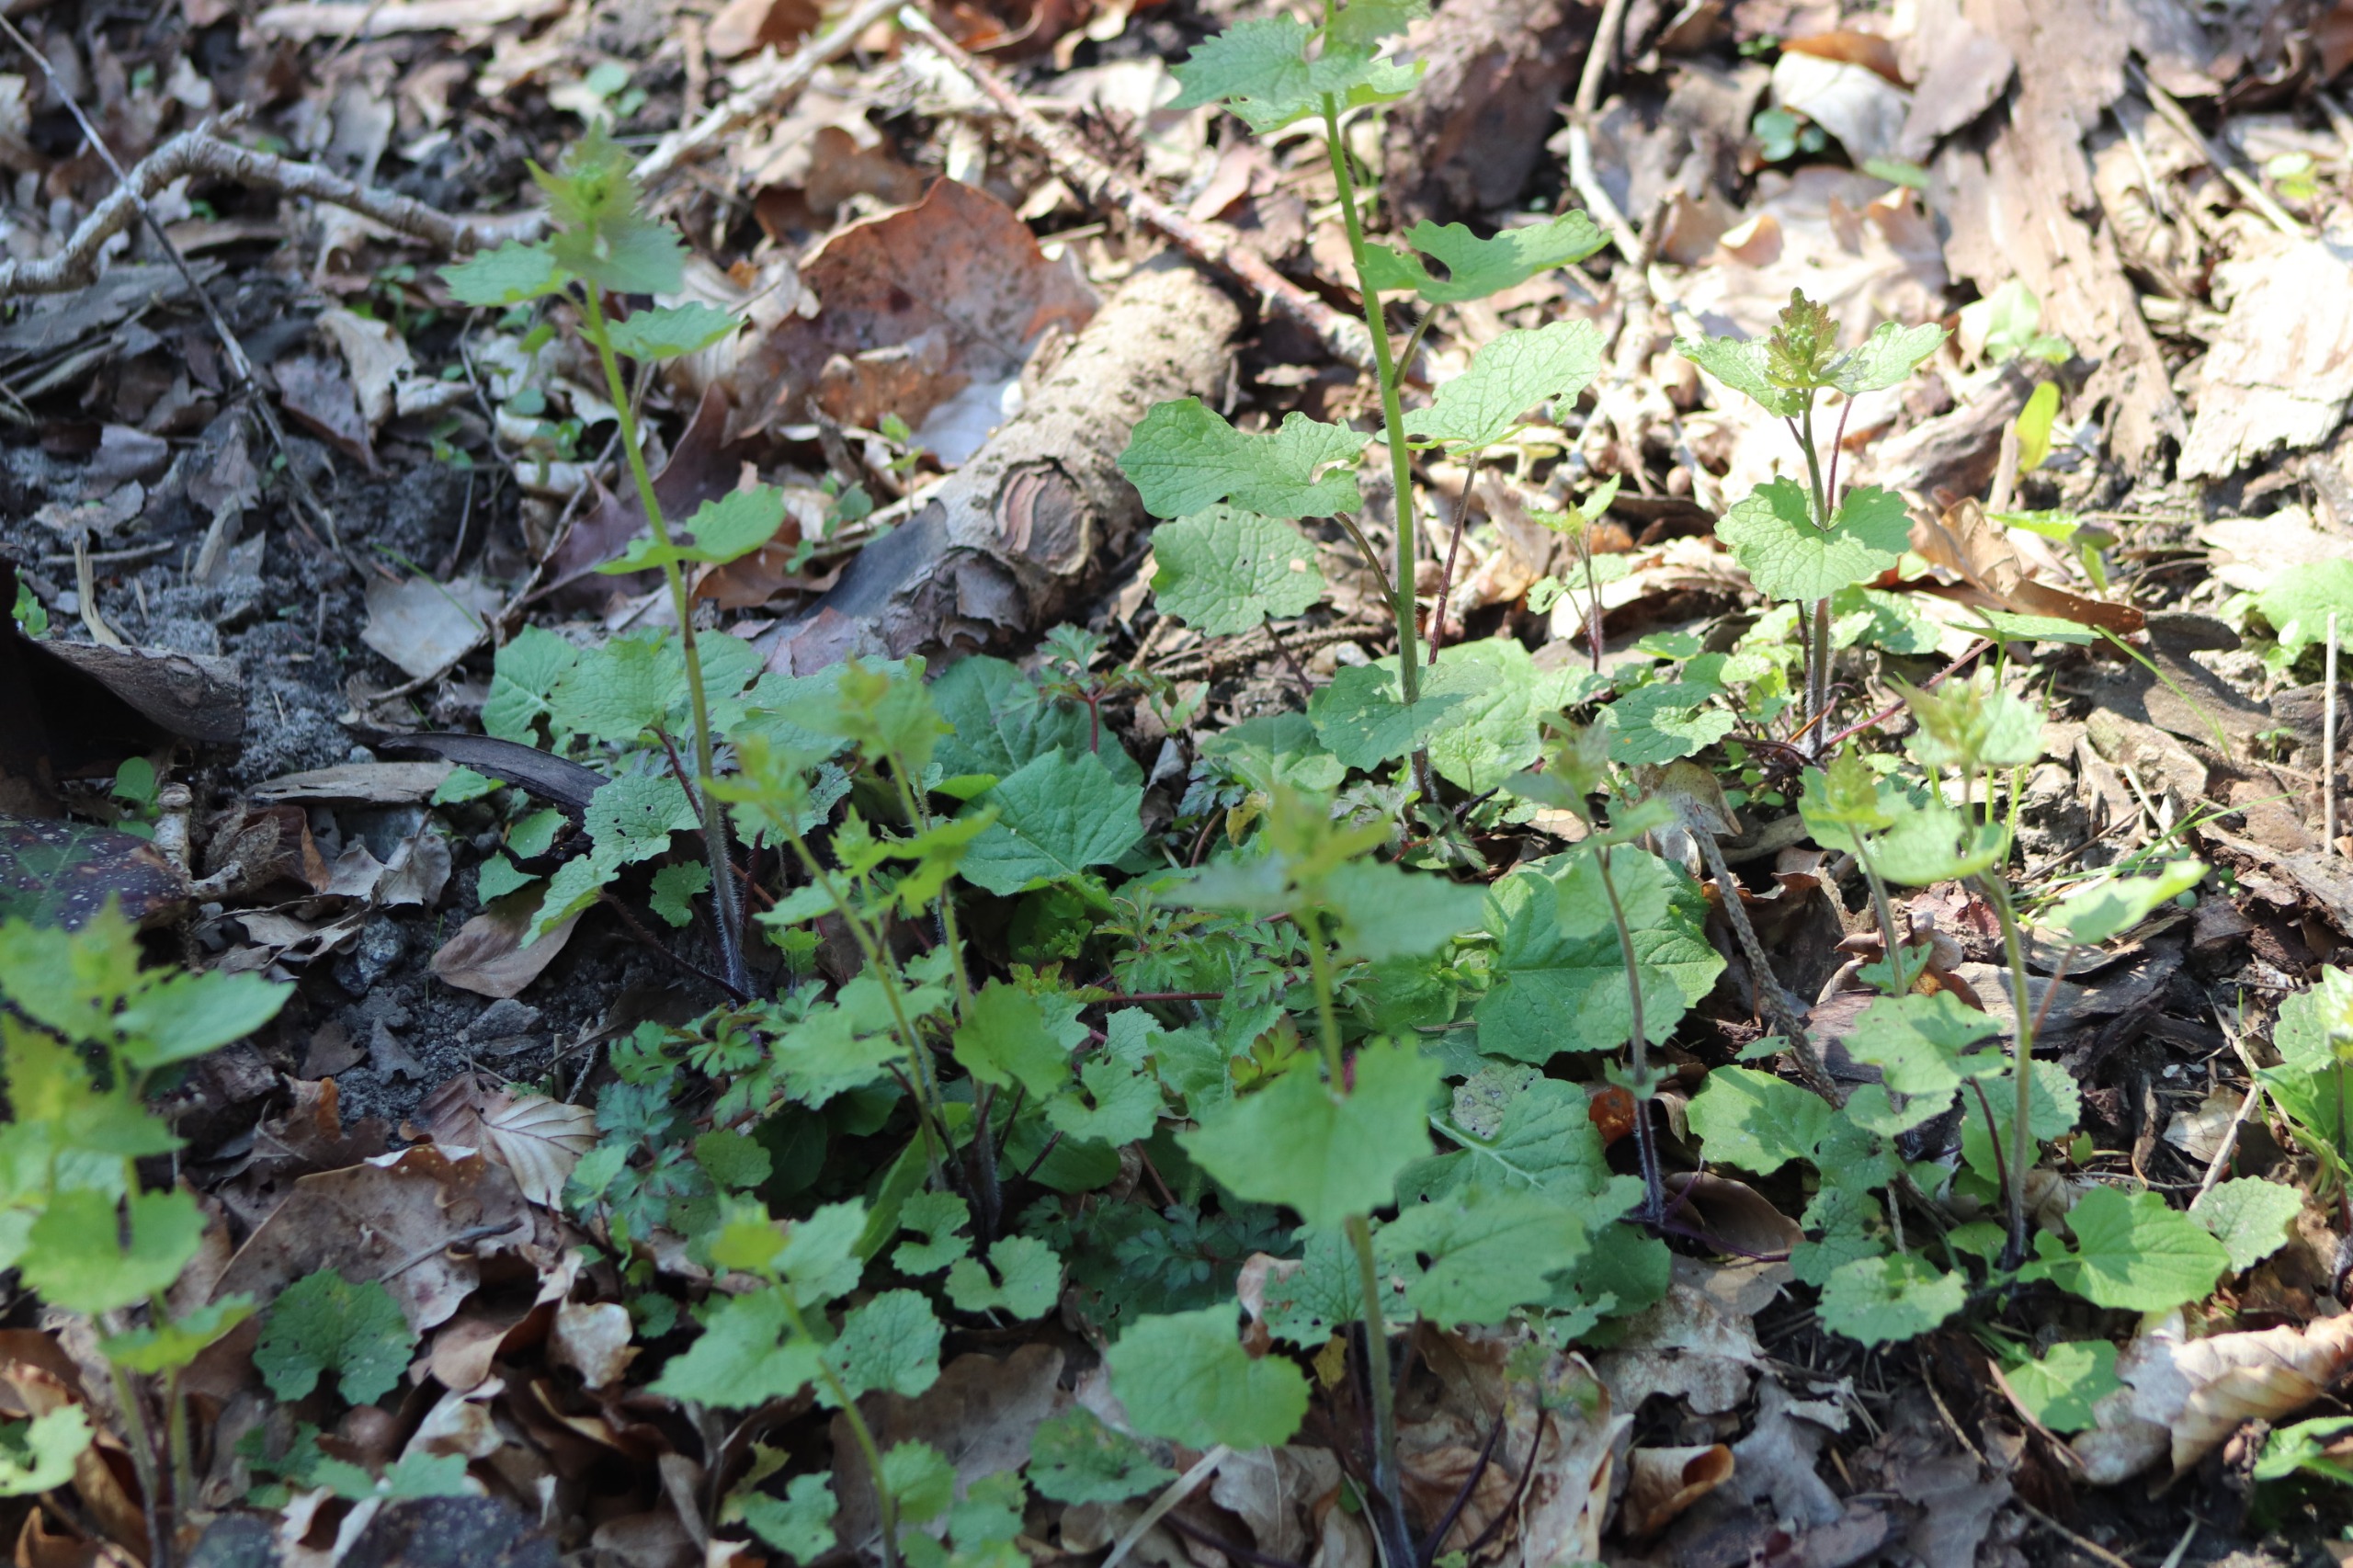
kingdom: Plantae
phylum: Tracheophyta
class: Magnoliopsida
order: Brassicales
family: Brassicaceae
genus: Alliaria
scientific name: Alliaria petiolata
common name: Løgkarse
